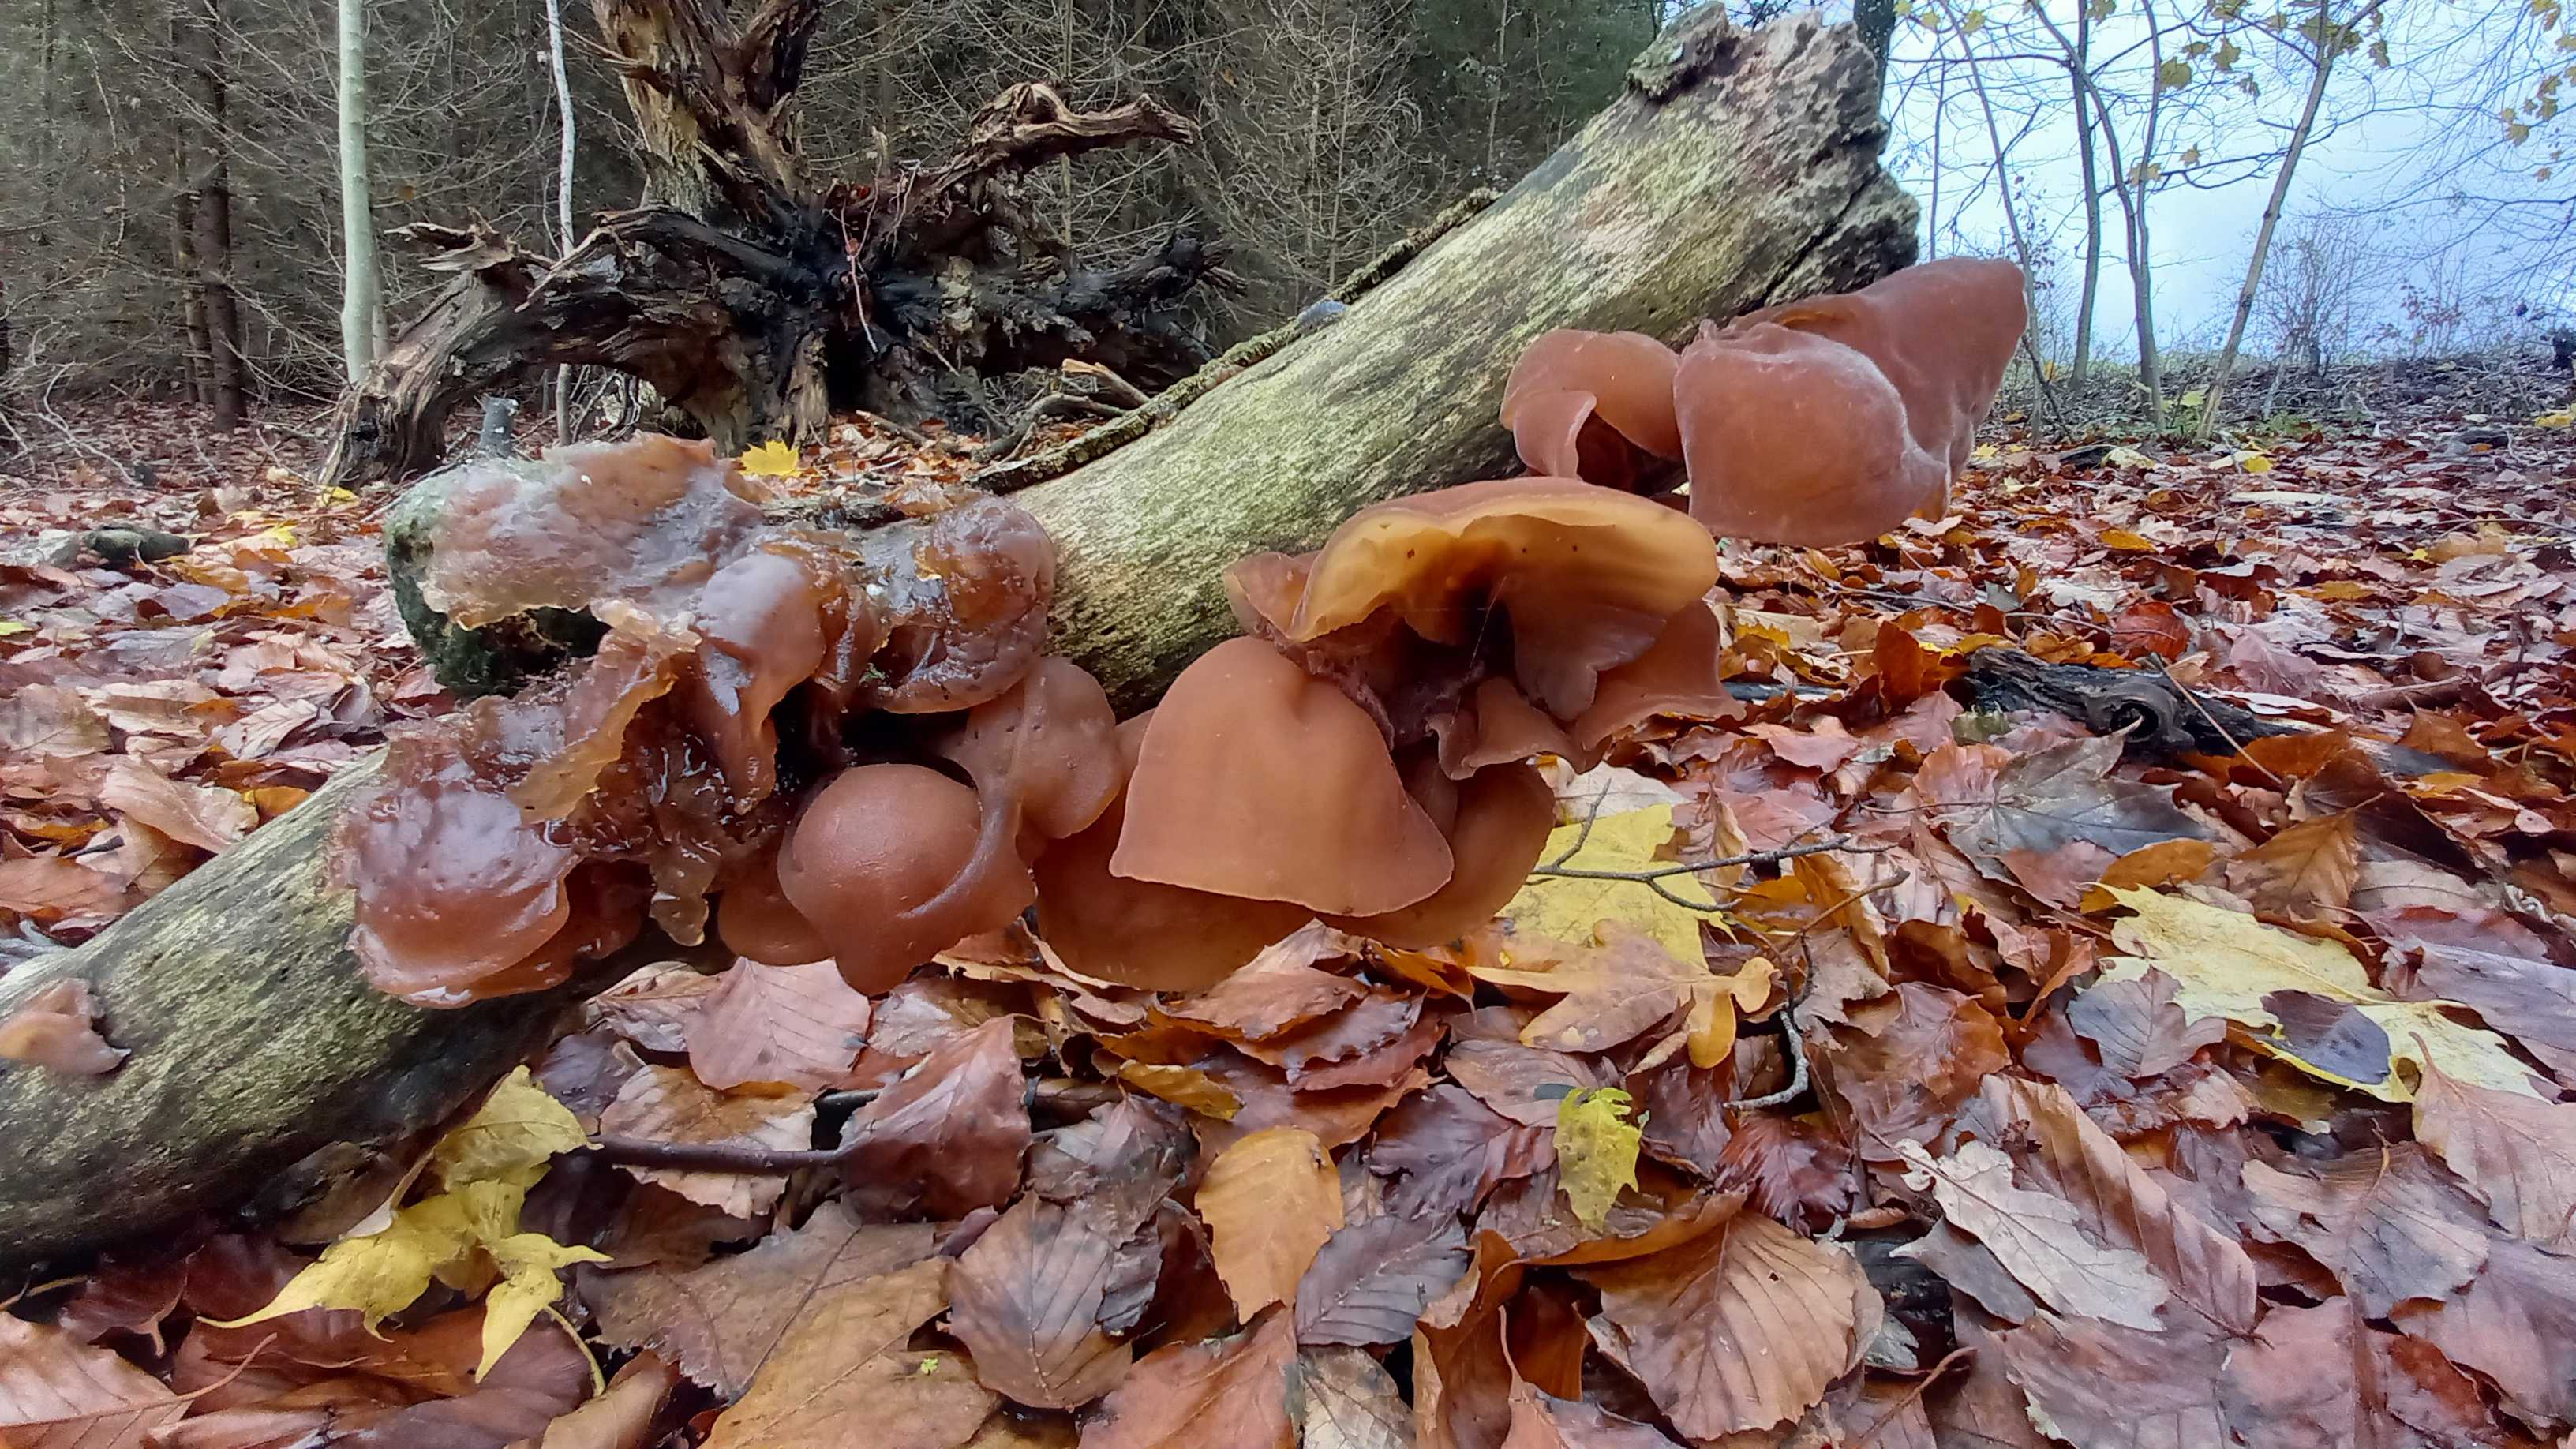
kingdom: Fungi
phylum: Basidiomycota
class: Agaricomycetes
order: Auriculariales
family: Auriculariaceae
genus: Auricularia
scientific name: Auricularia auricula-judae
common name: almindelig judasøre
